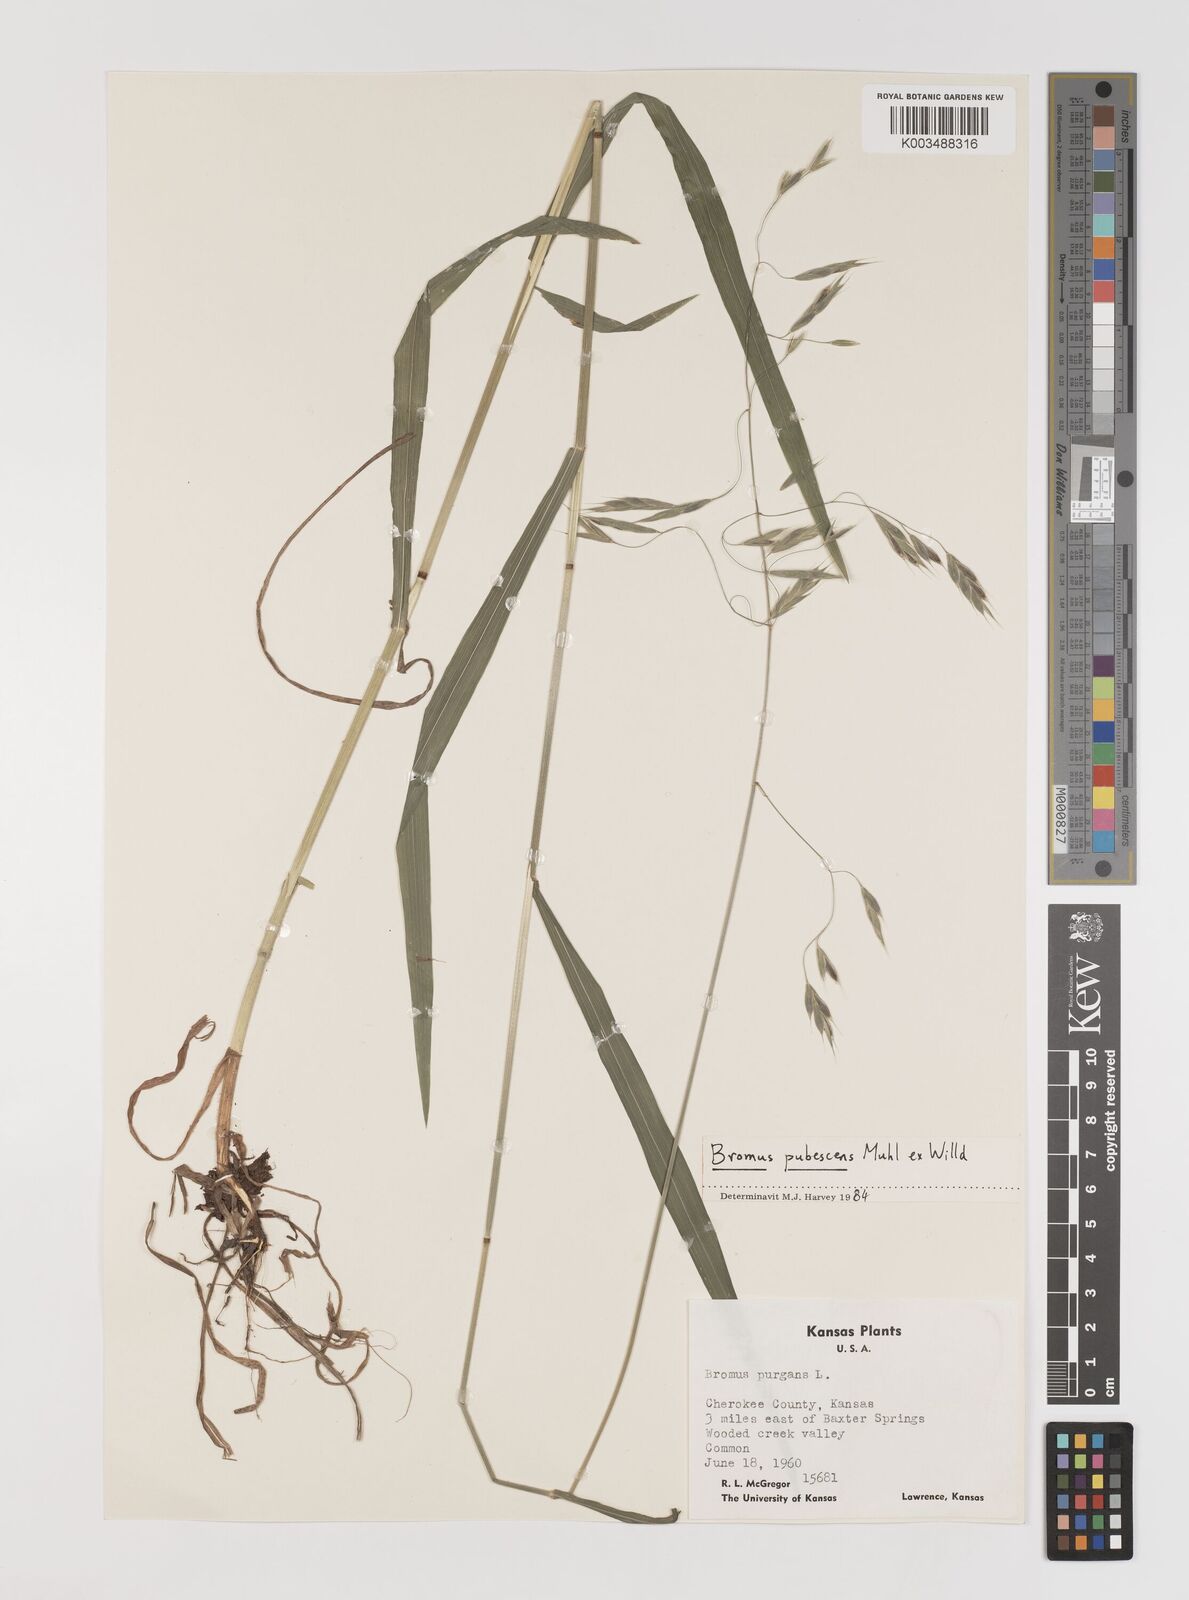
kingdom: Plantae
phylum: Tracheophyta
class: Liliopsida
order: Poales
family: Poaceae
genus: Bromus
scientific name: Bromus pubescens
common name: Hairy wood brome grass
